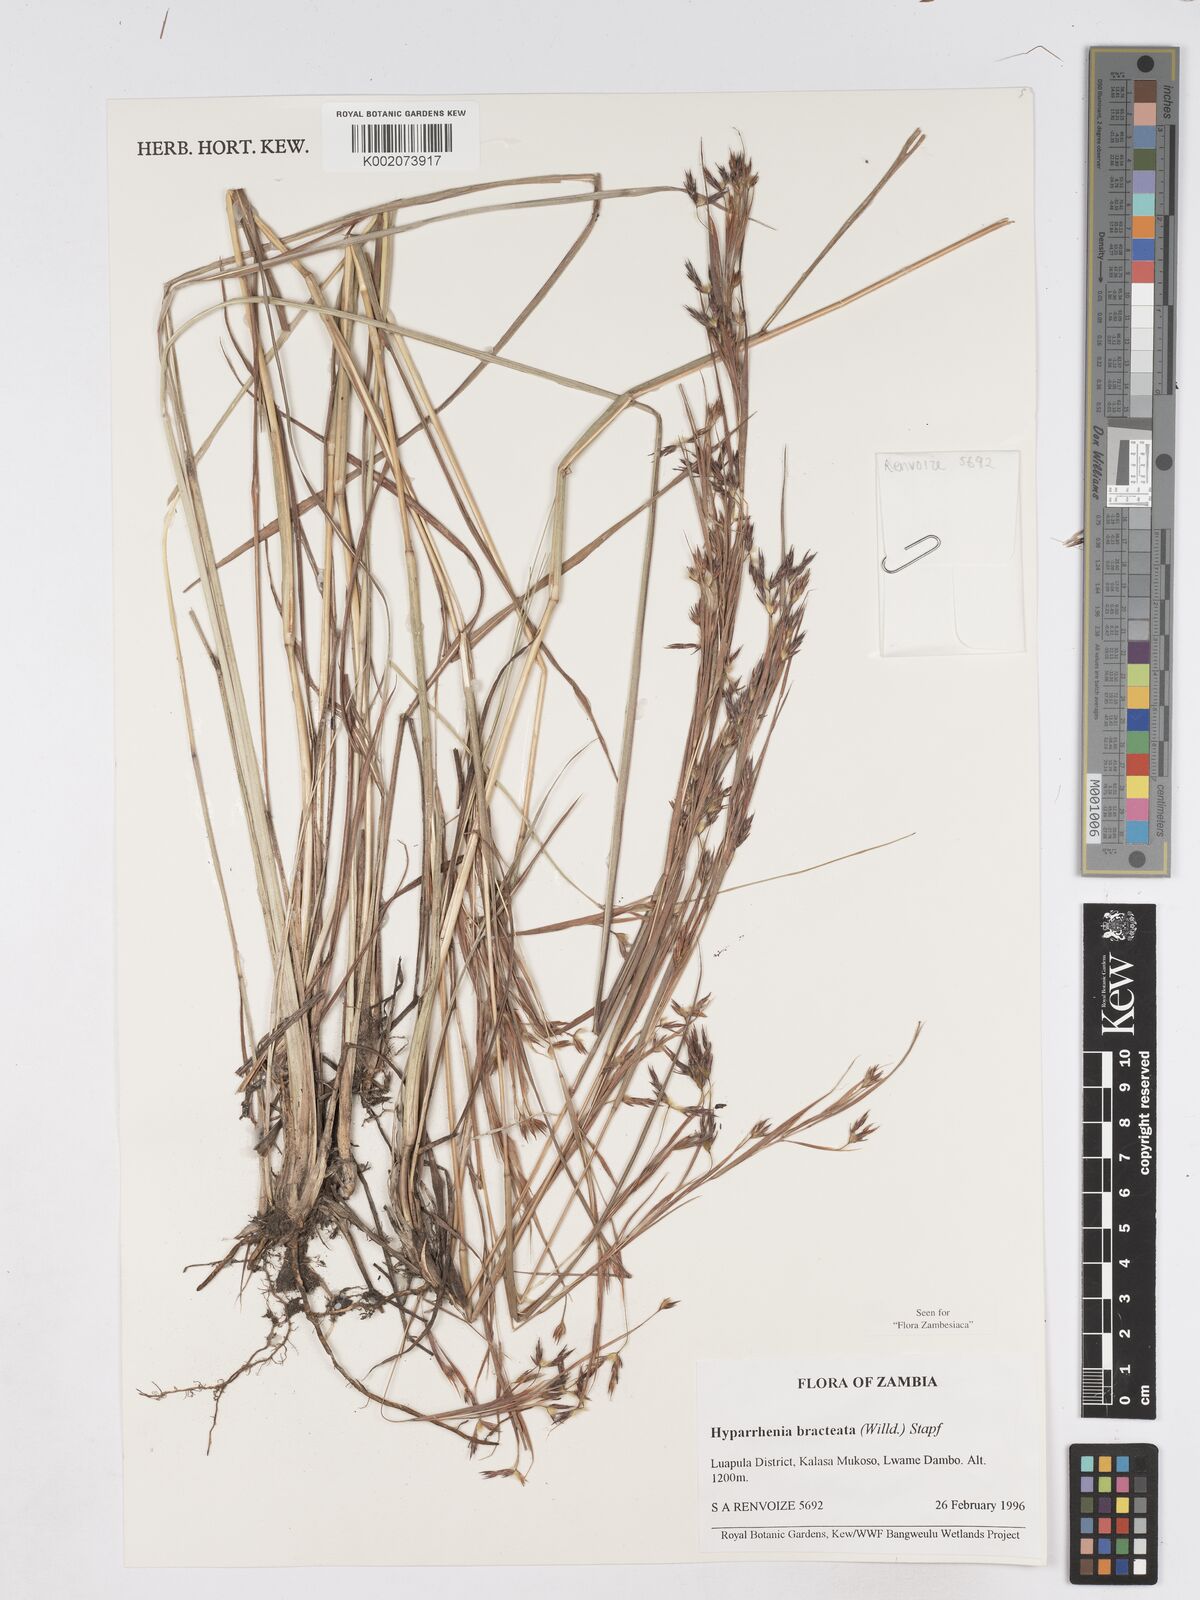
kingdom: Plantae
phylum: Tracheophyta
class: Liliopsida
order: Poales
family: Poaceae
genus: Hyparrhenia
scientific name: Hyparrhenia bracteata
